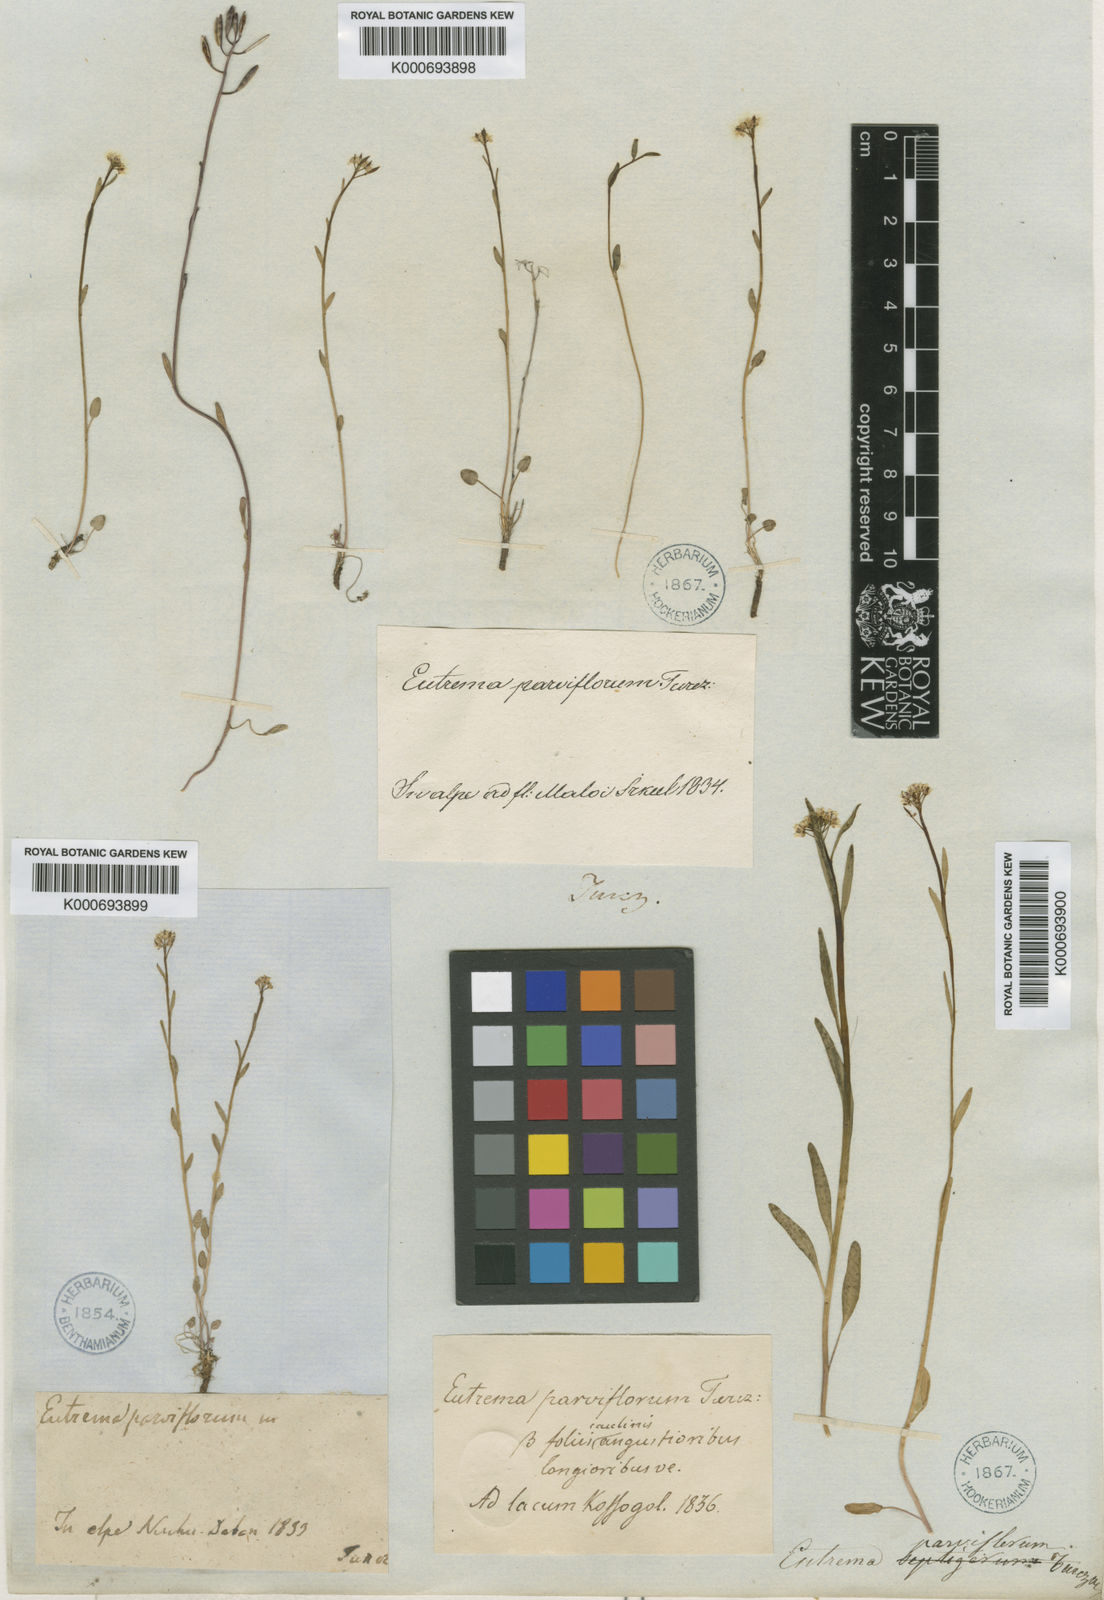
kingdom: Plantae
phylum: Tracheophyta
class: Magnoliopsida
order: Brassicales
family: Brassicaceae
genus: Eutrema
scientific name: Eutrema parviflorum
